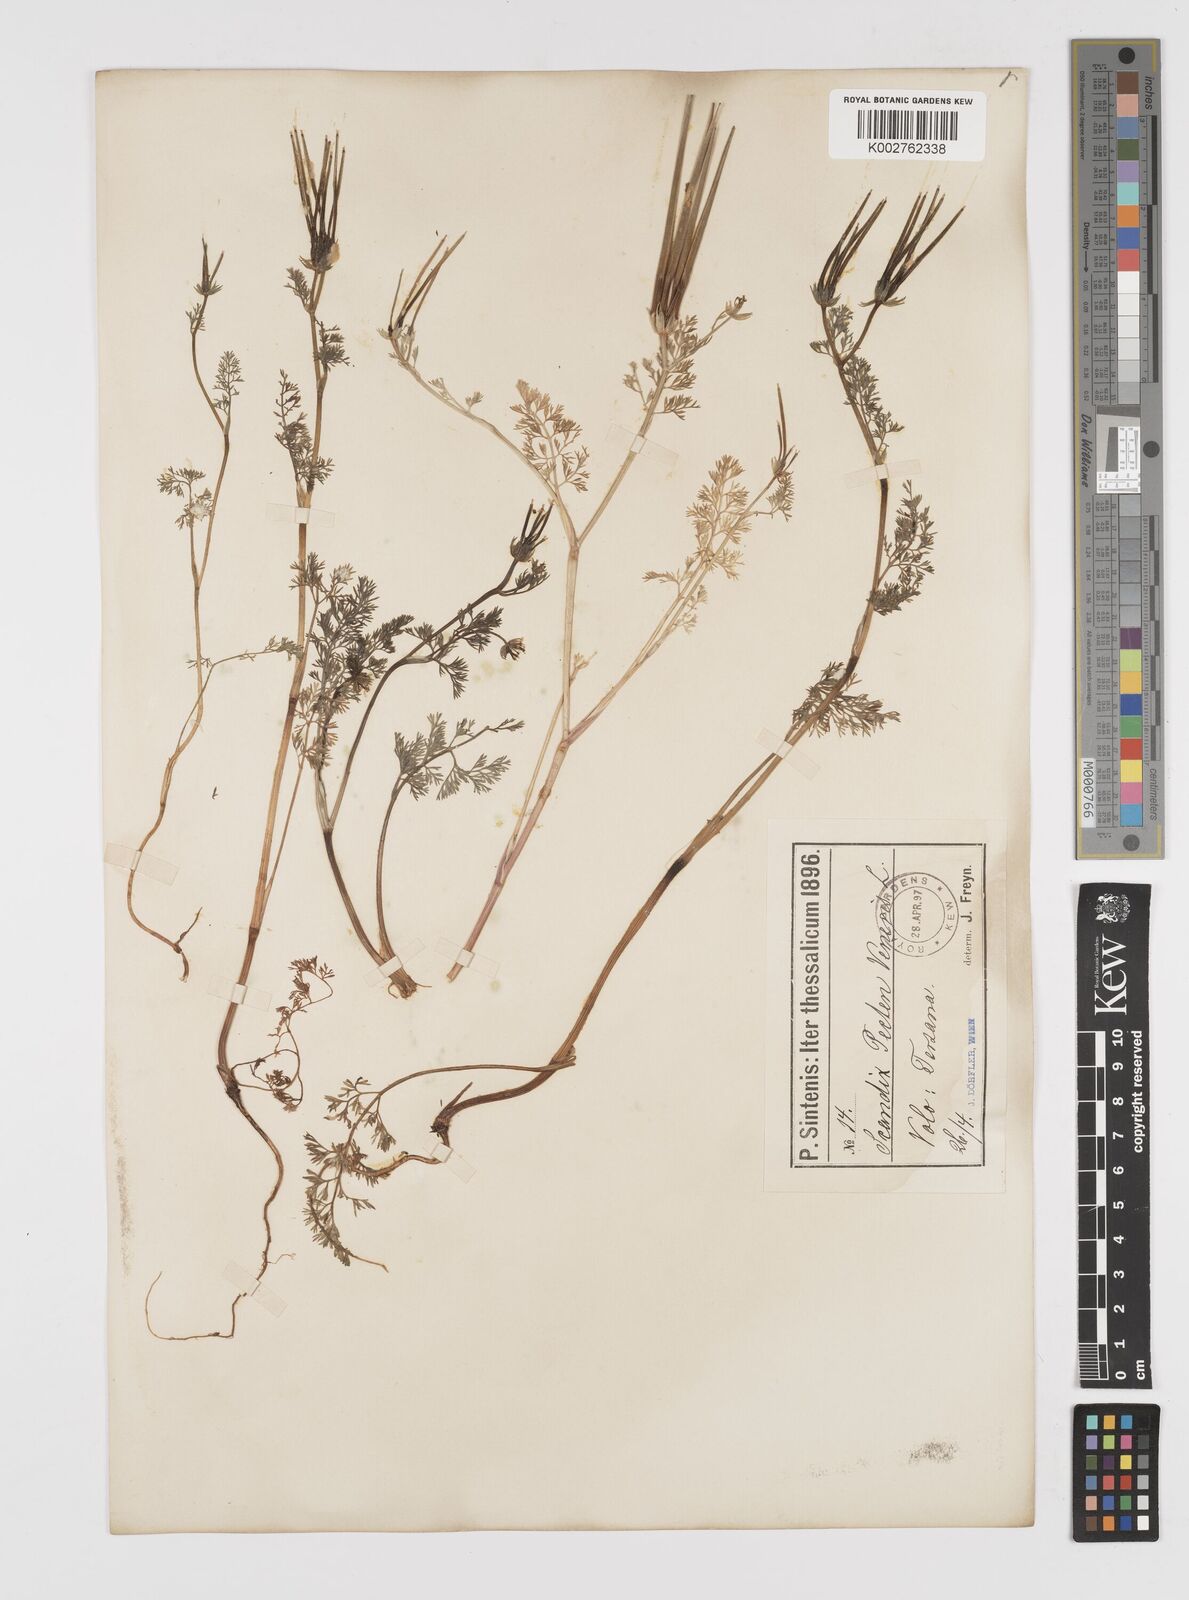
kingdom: Plantae
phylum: Tracheophyta
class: Magnoliopsida
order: Apiales
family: Apiaceae
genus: Scandix
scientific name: Scandix pecten-veneris
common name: Shepherd's-needle
